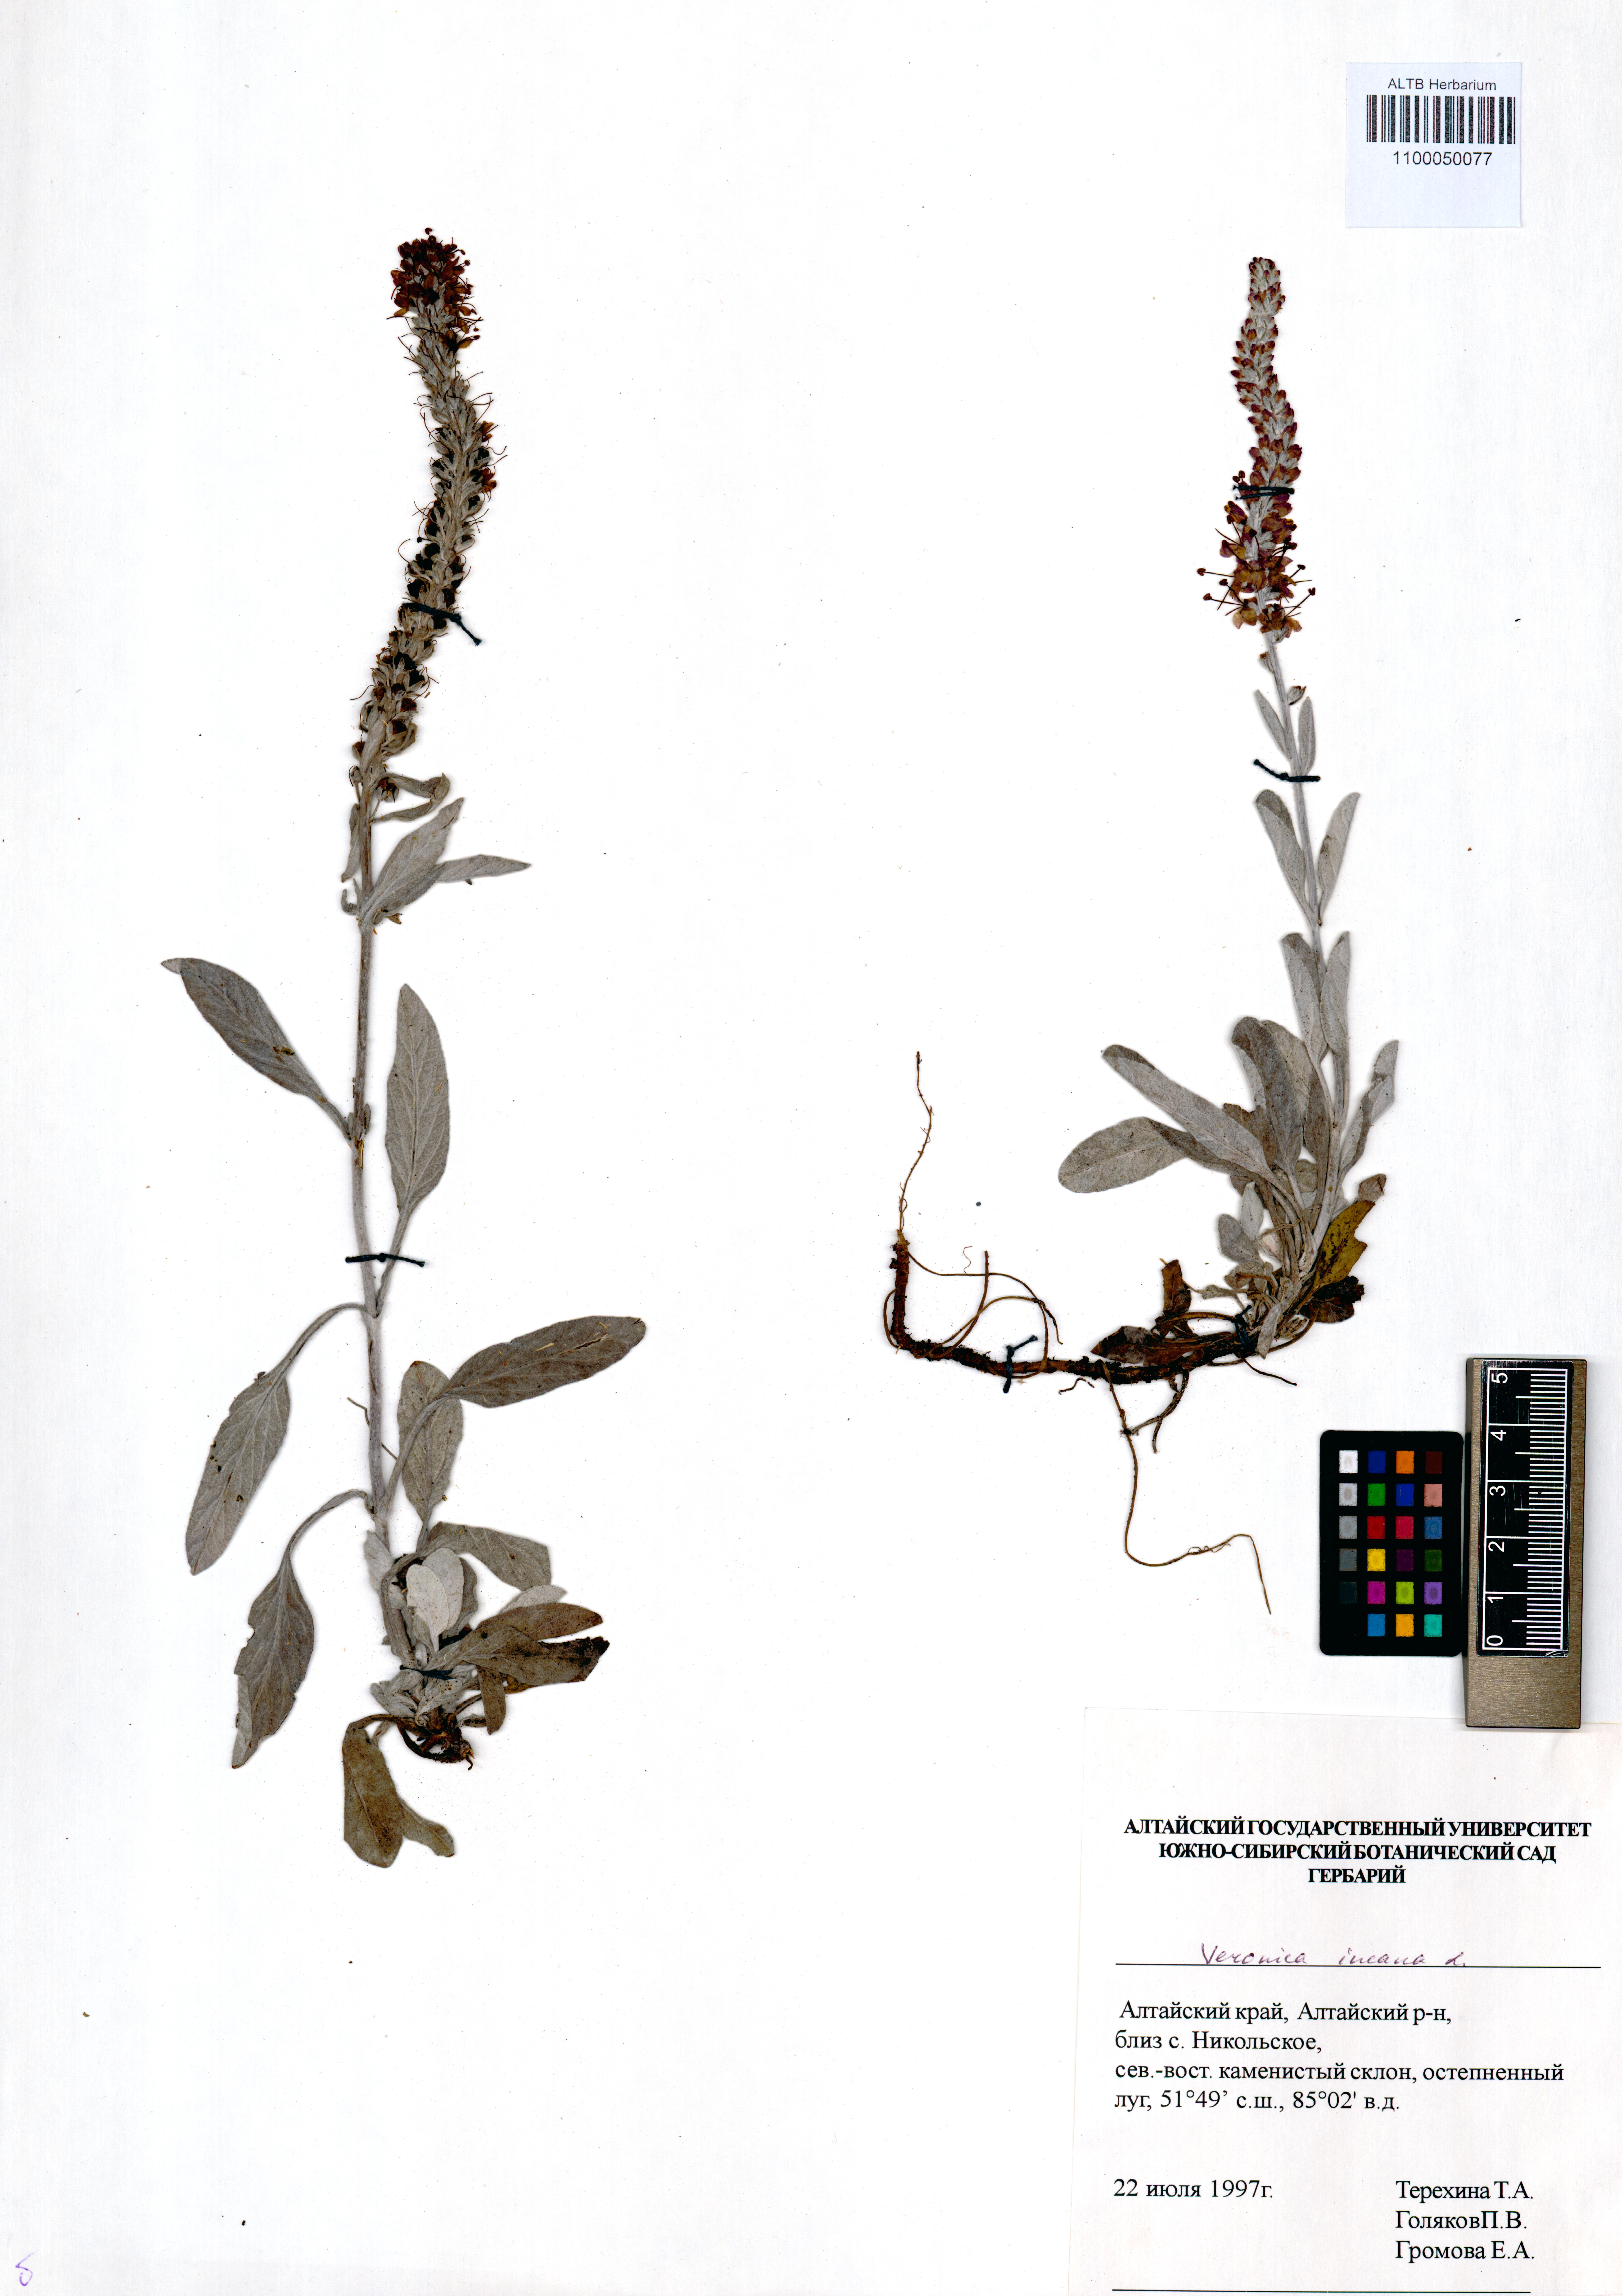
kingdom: Plantae
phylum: Tracheophyta
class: Magnoliopsida
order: Lamiales
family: Plantaginaceae
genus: Veronica
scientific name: Veronica incana
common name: Silver speedwell
